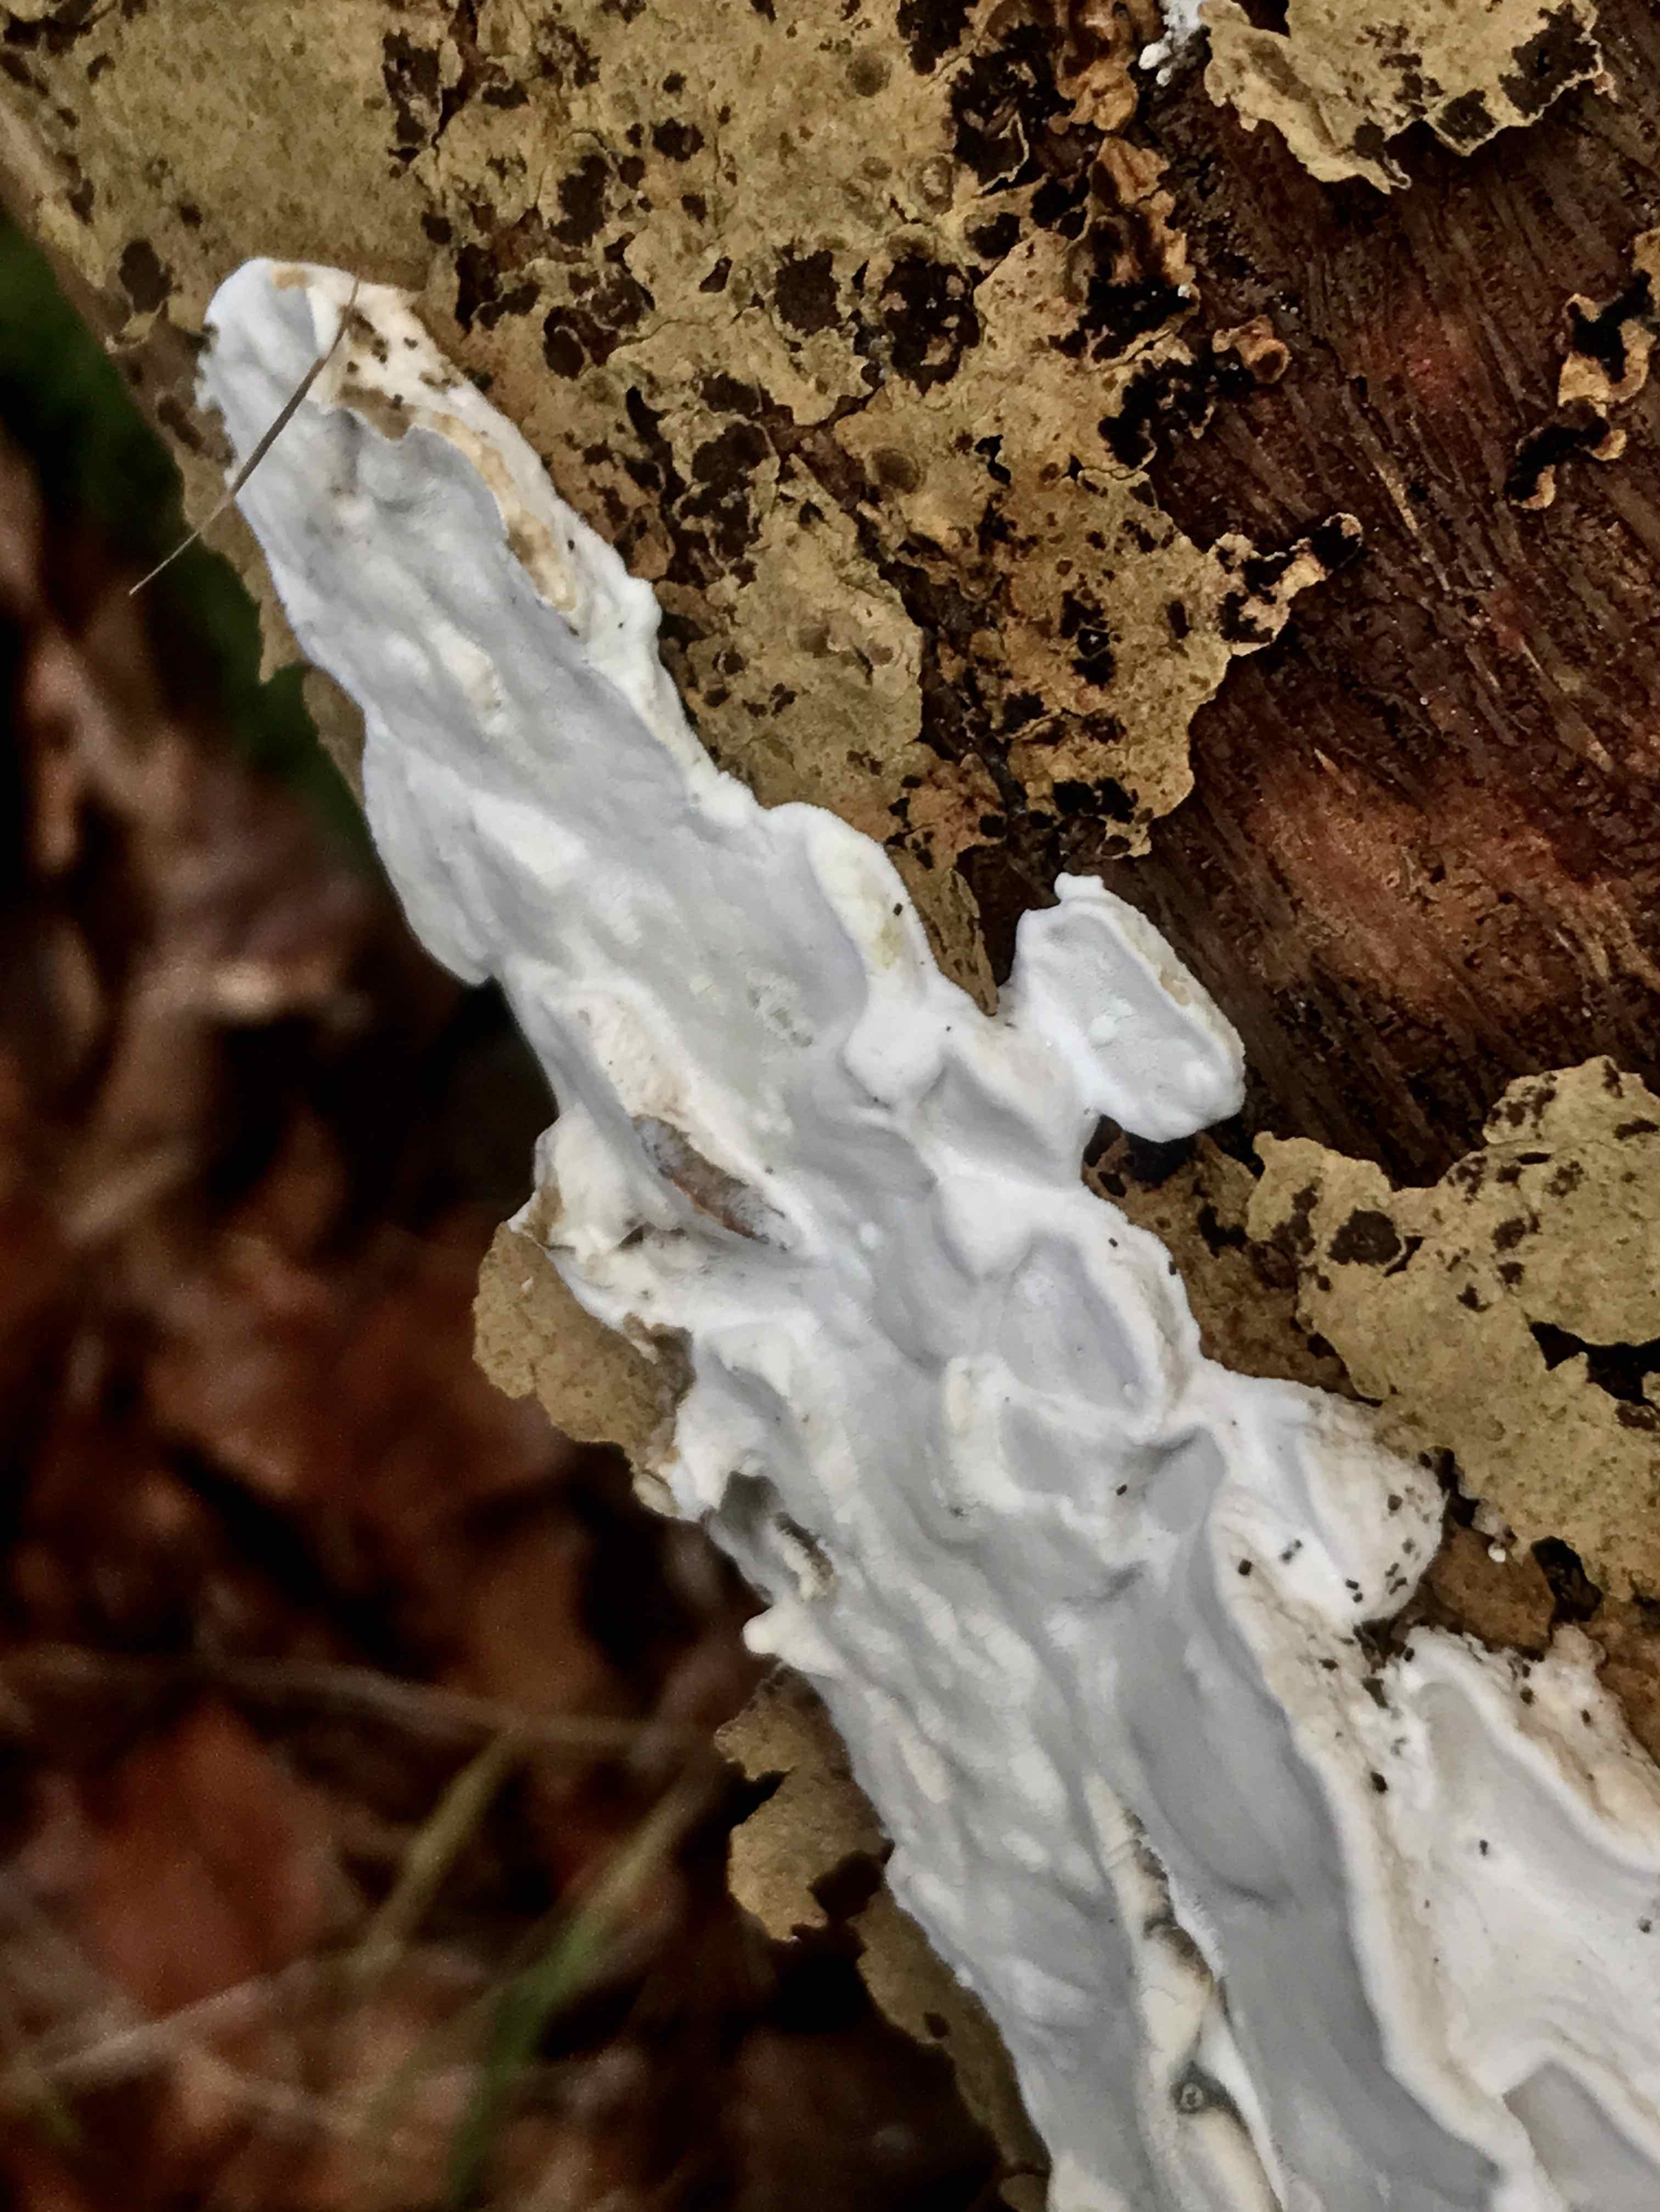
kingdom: Fungi
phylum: Basidiomycota
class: Agaricomycetes
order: Polyporales
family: Incrustoporiaceae
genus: Skeletocutis
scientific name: Skeletocutis nemoralis
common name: stor krystalporesvamp
